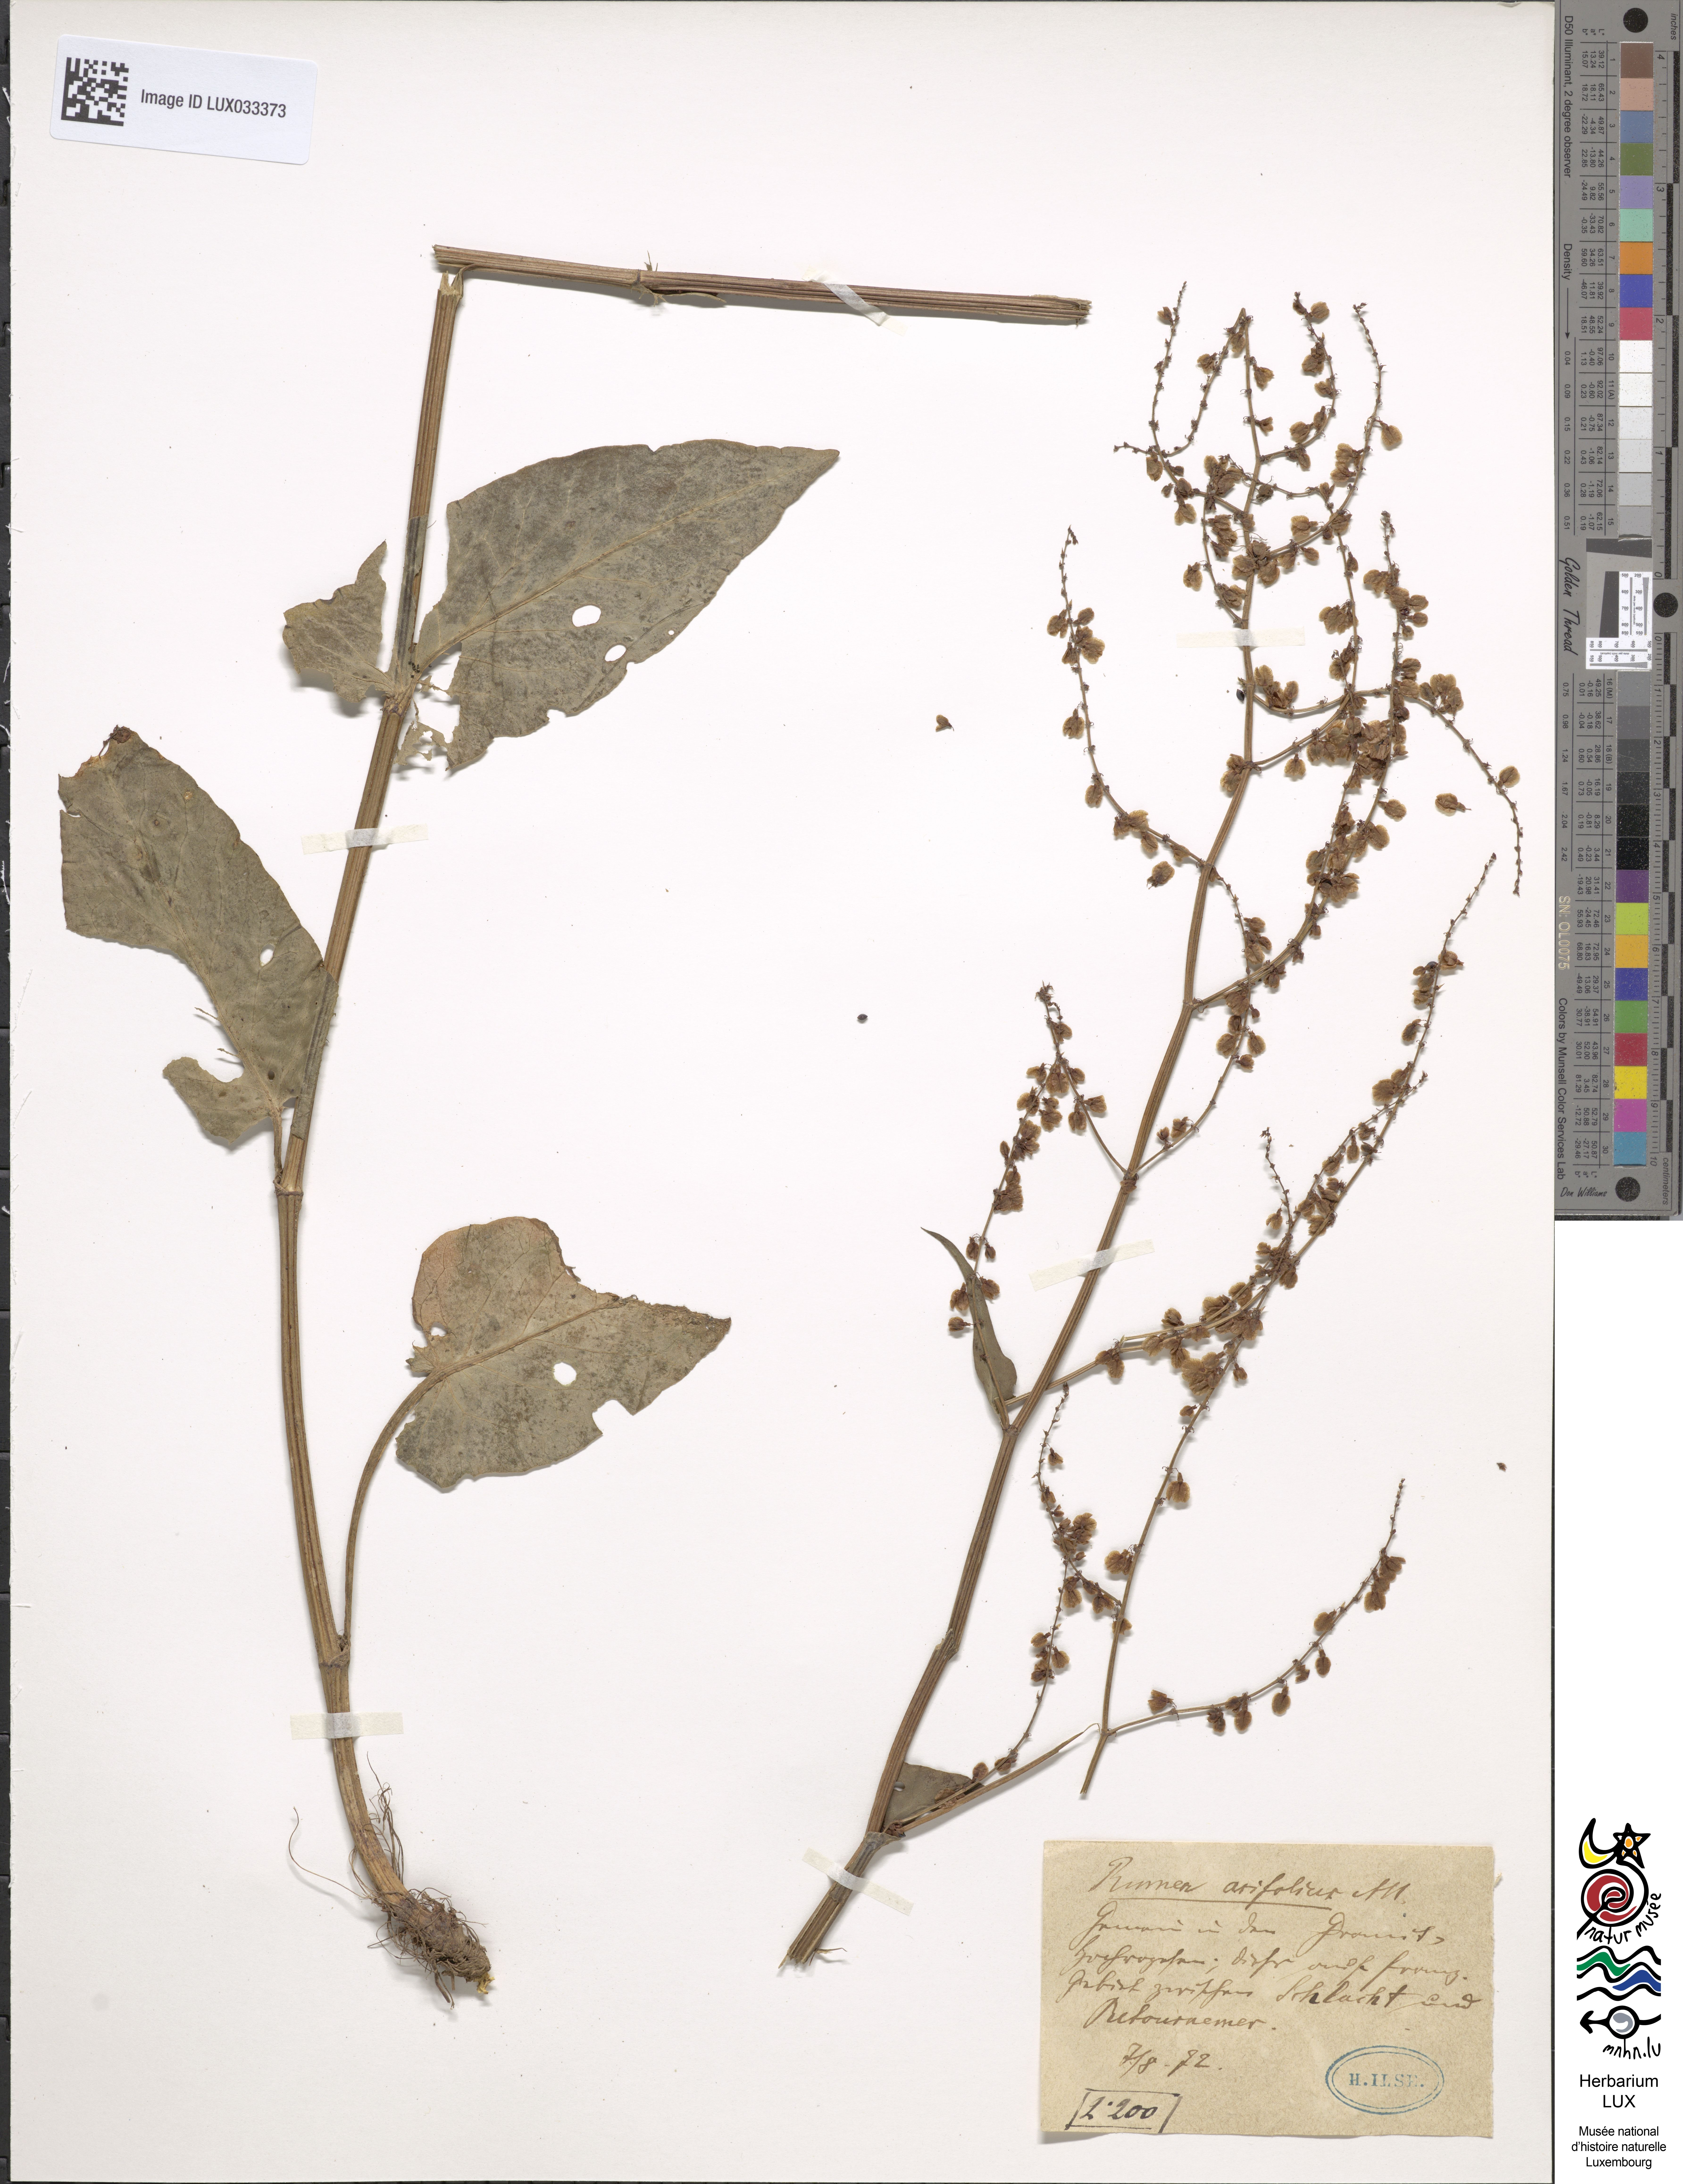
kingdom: Plantae
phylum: Tracheophyta
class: Magnoliopsida
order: Caryophyllales
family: Polygonaceae
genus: Rumex
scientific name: Rumex scutatus
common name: French sorrel
